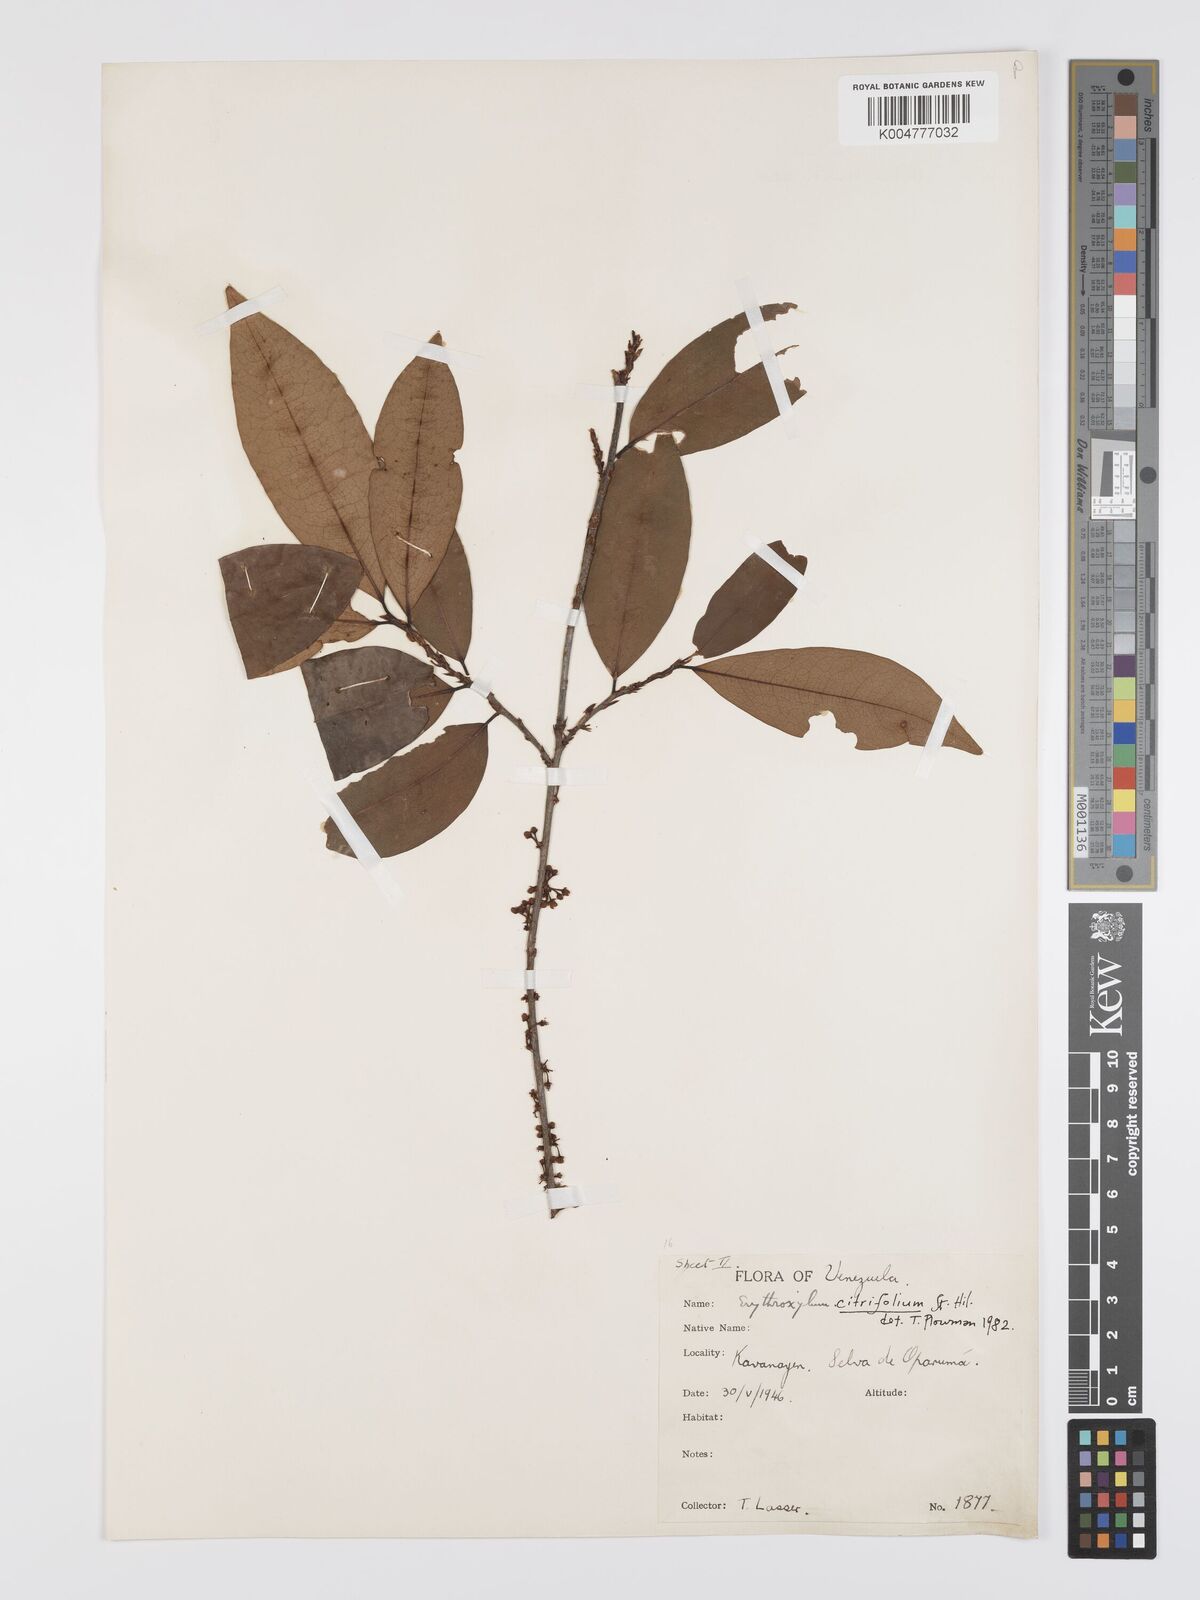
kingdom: Plantae
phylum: Tracheophyta
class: Magnoliopsida
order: Malpighiales
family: Erythroxylaceae
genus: Erythroxylum
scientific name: Erythroxylum citrifolium
